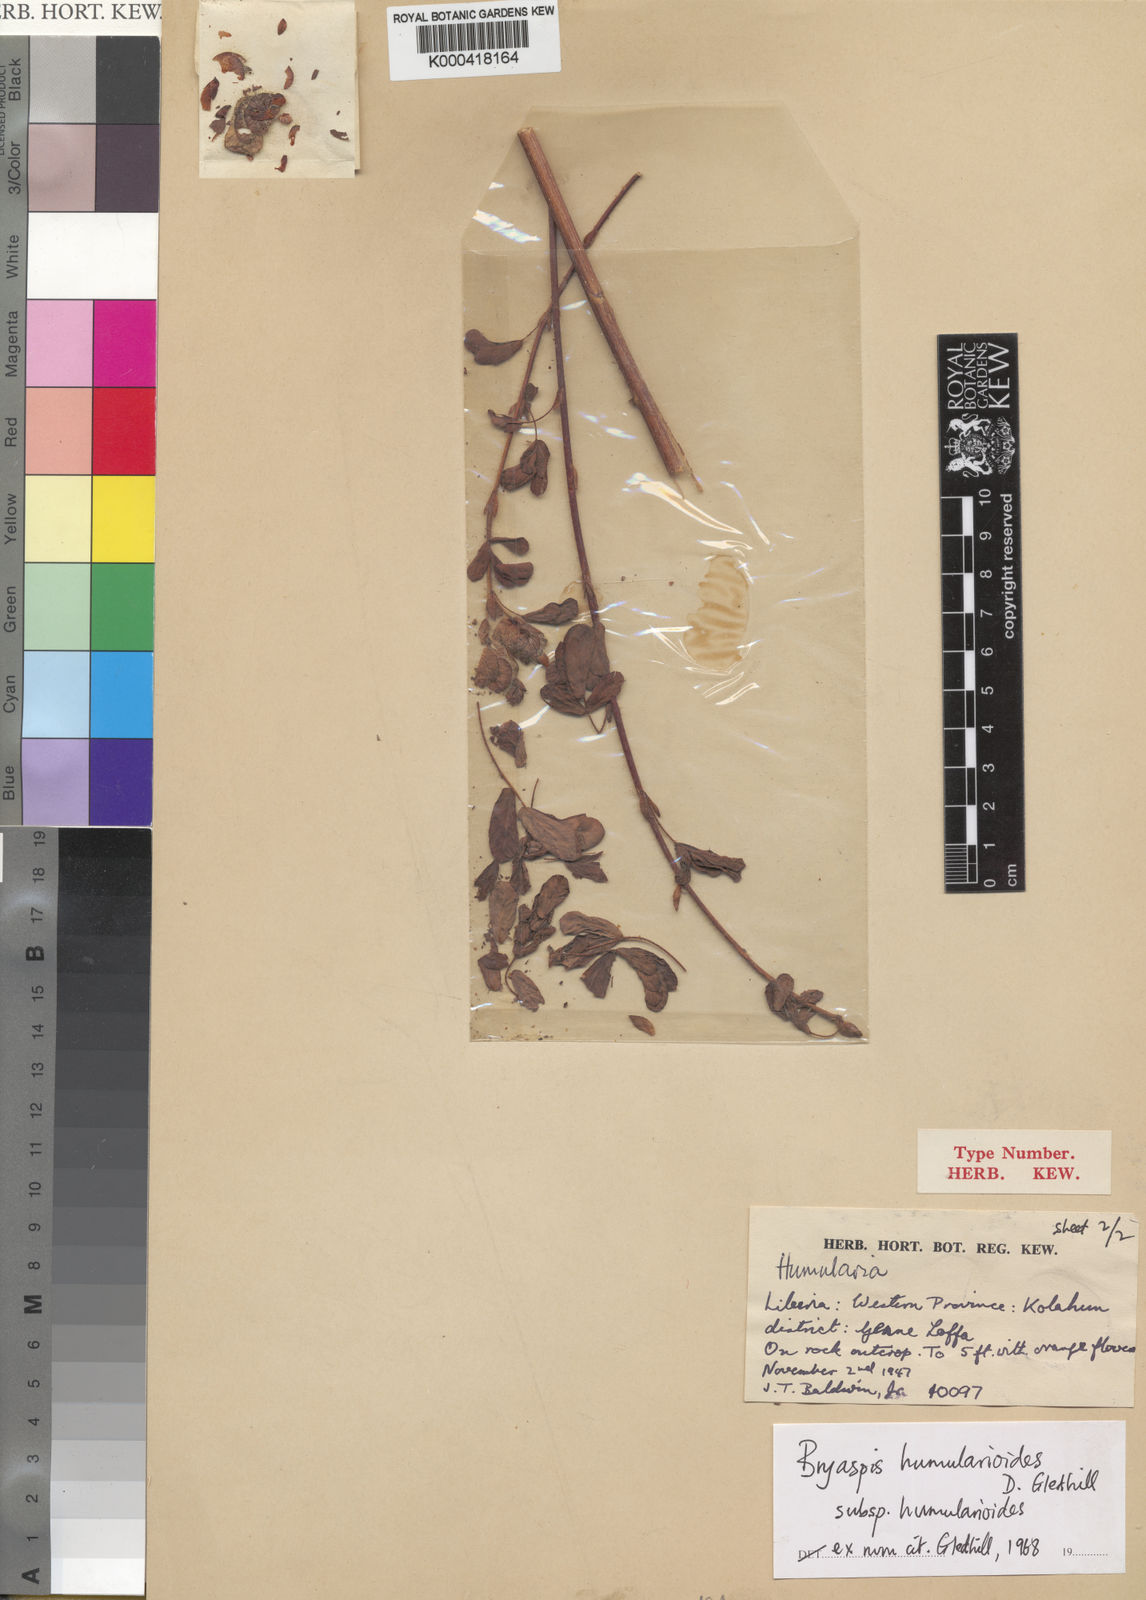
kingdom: Plantae
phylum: Tracheophyta
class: Magnoliopsida
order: Fabales
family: Fabaceae
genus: Bryaspis
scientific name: Bryaspis humularioides
